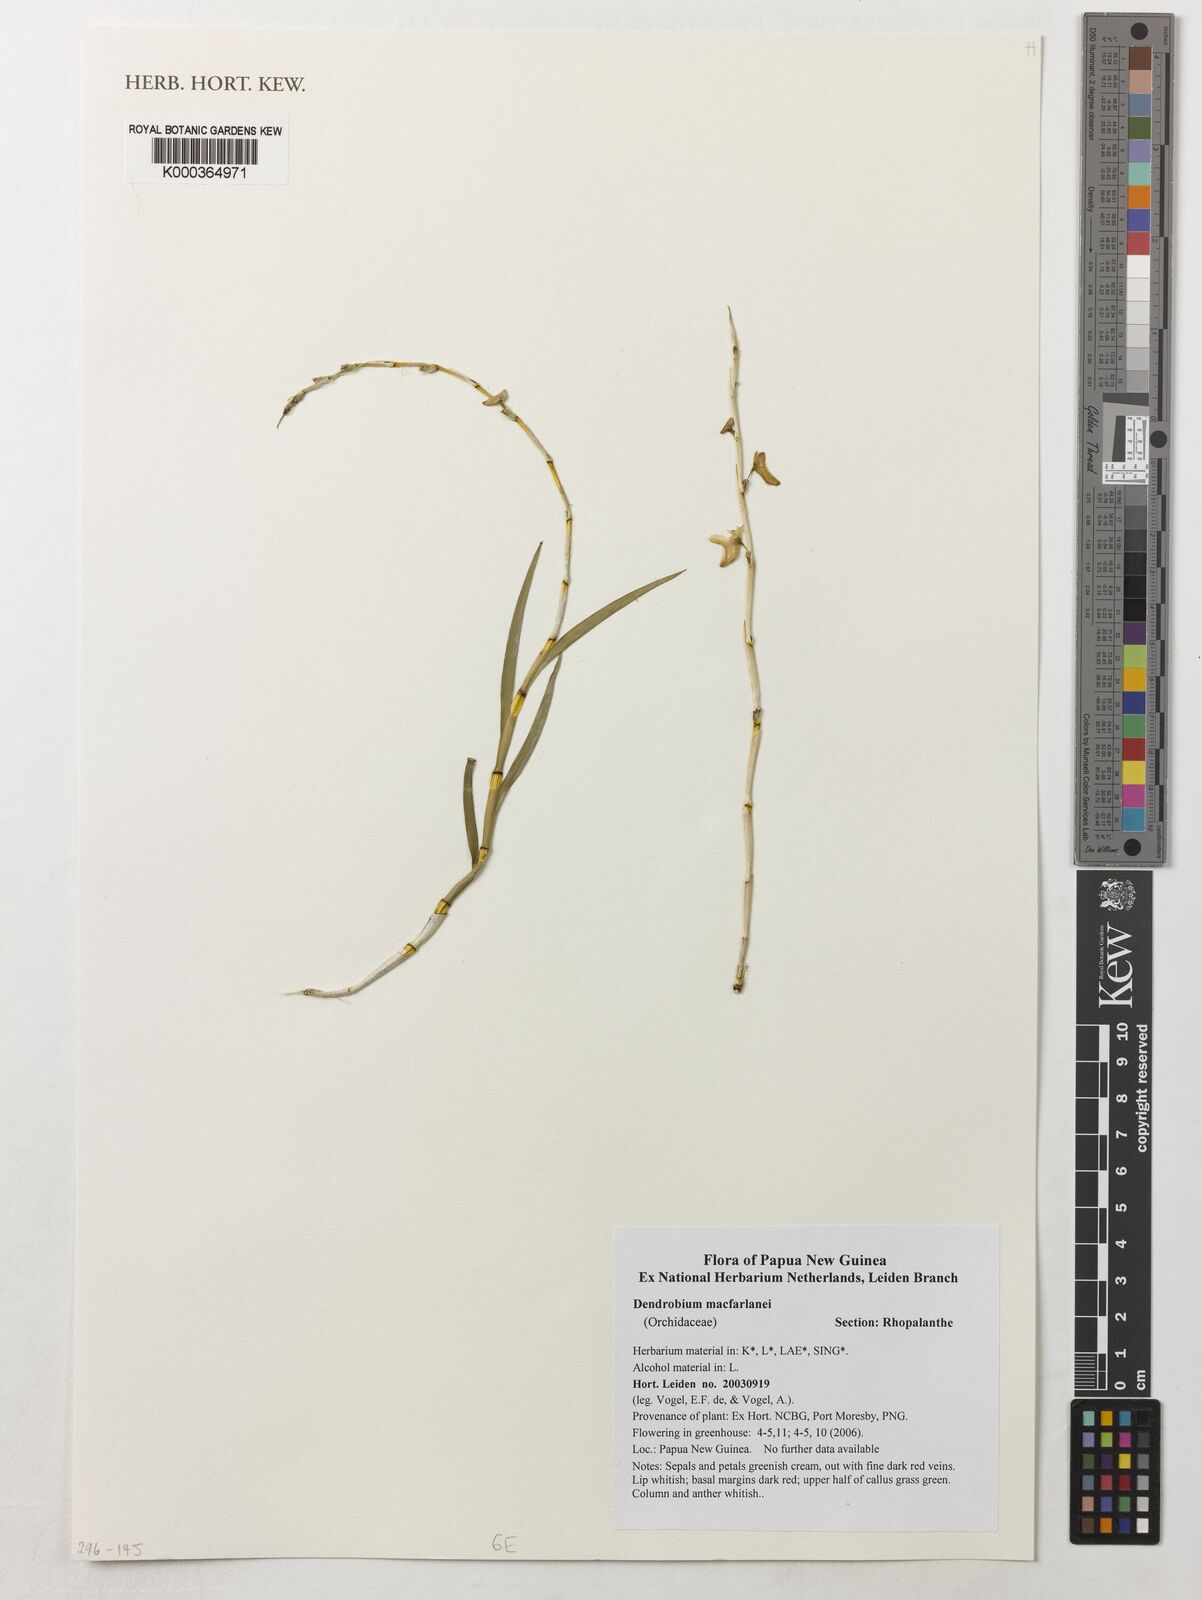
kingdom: Plantae
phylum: Tracheophyta
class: Liliopsida
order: Asparagales
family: Orchidaceae
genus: Dendrobium
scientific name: Dendrobium macfarlanei
